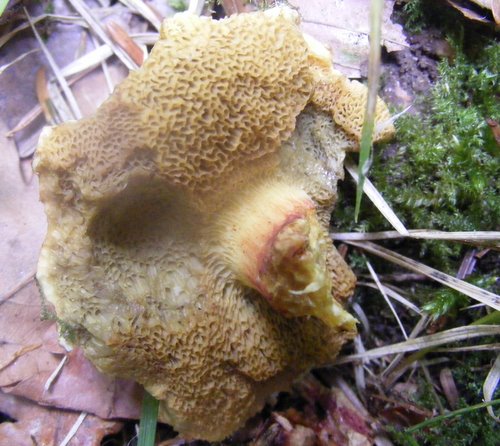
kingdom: Fungi
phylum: Basidiomycota
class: Agaricomycetes
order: Boletales
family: Boletaceae
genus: Xerocomellus
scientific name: Xerocomellus chrysenteron
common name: rødsprukken rørhat
